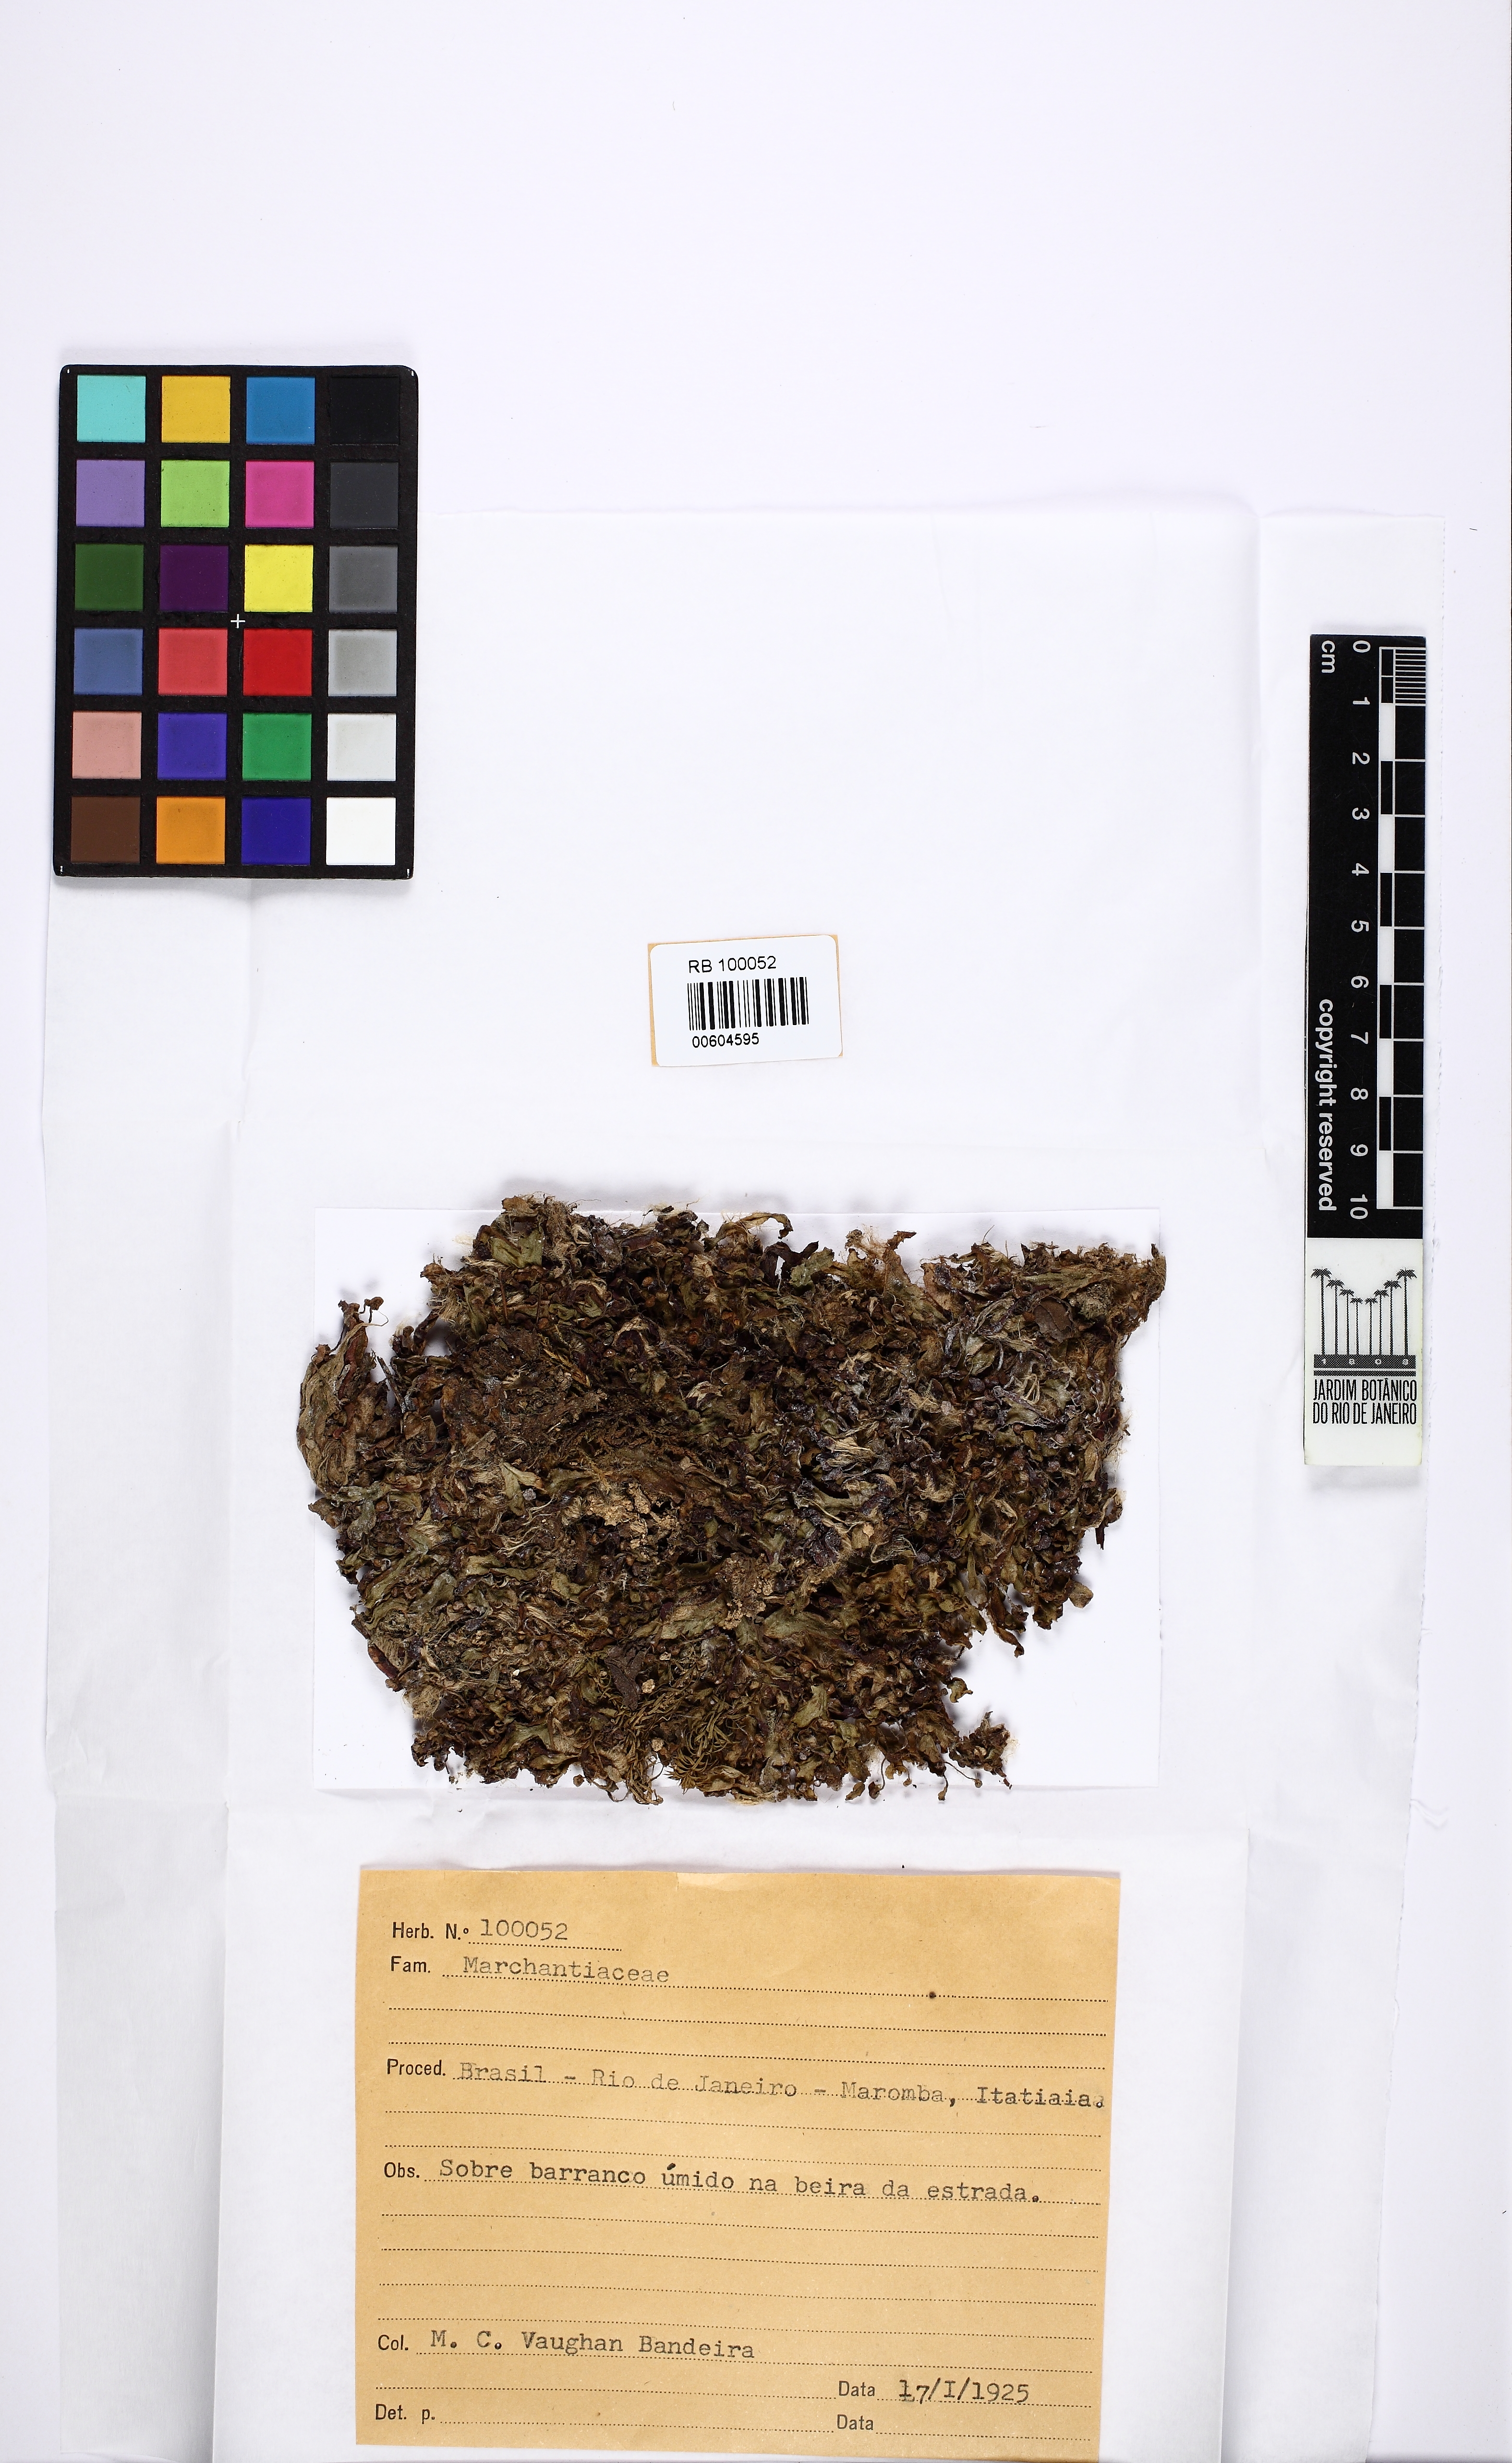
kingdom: Plantae
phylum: Marchantiophyta
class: Marchantiopsida
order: Marchantiales
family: Marchantiaceae
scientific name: Marchantiaceae
